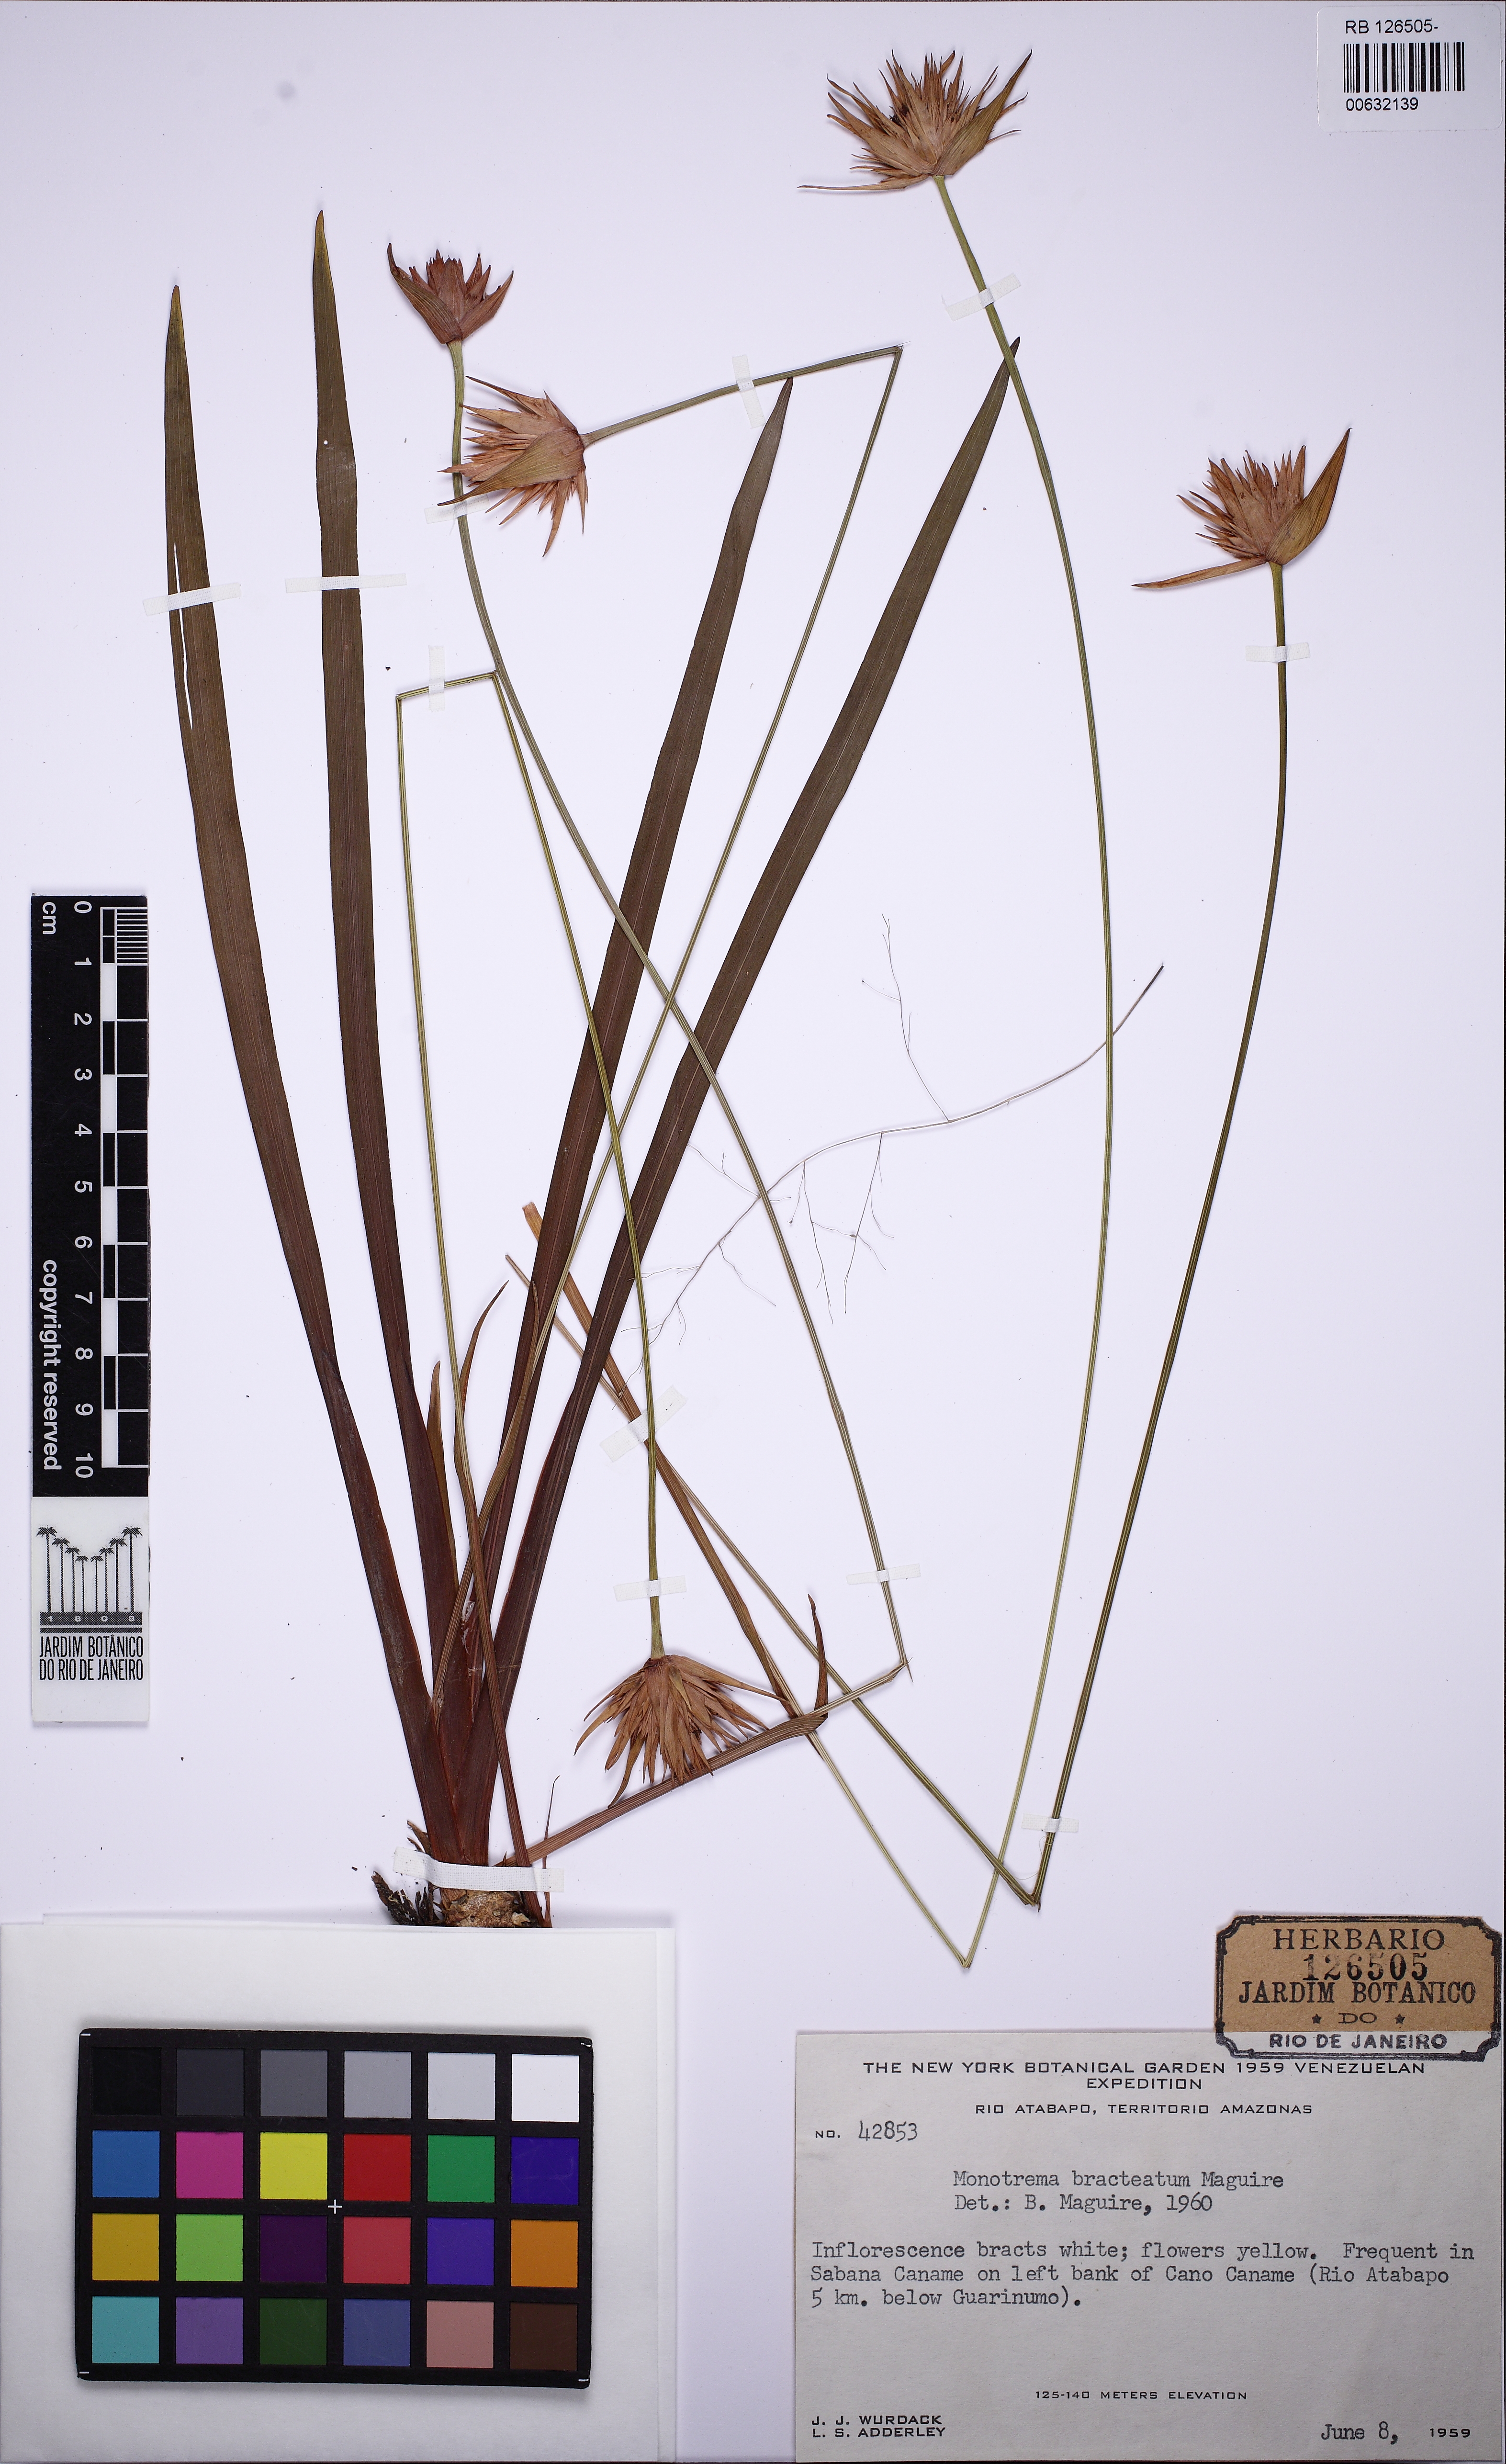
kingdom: Plantae
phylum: Tracheophyta
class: Liliopsida
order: Poales
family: Rapateaceae
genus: Monotrema
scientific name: Monotrema bracteatum
